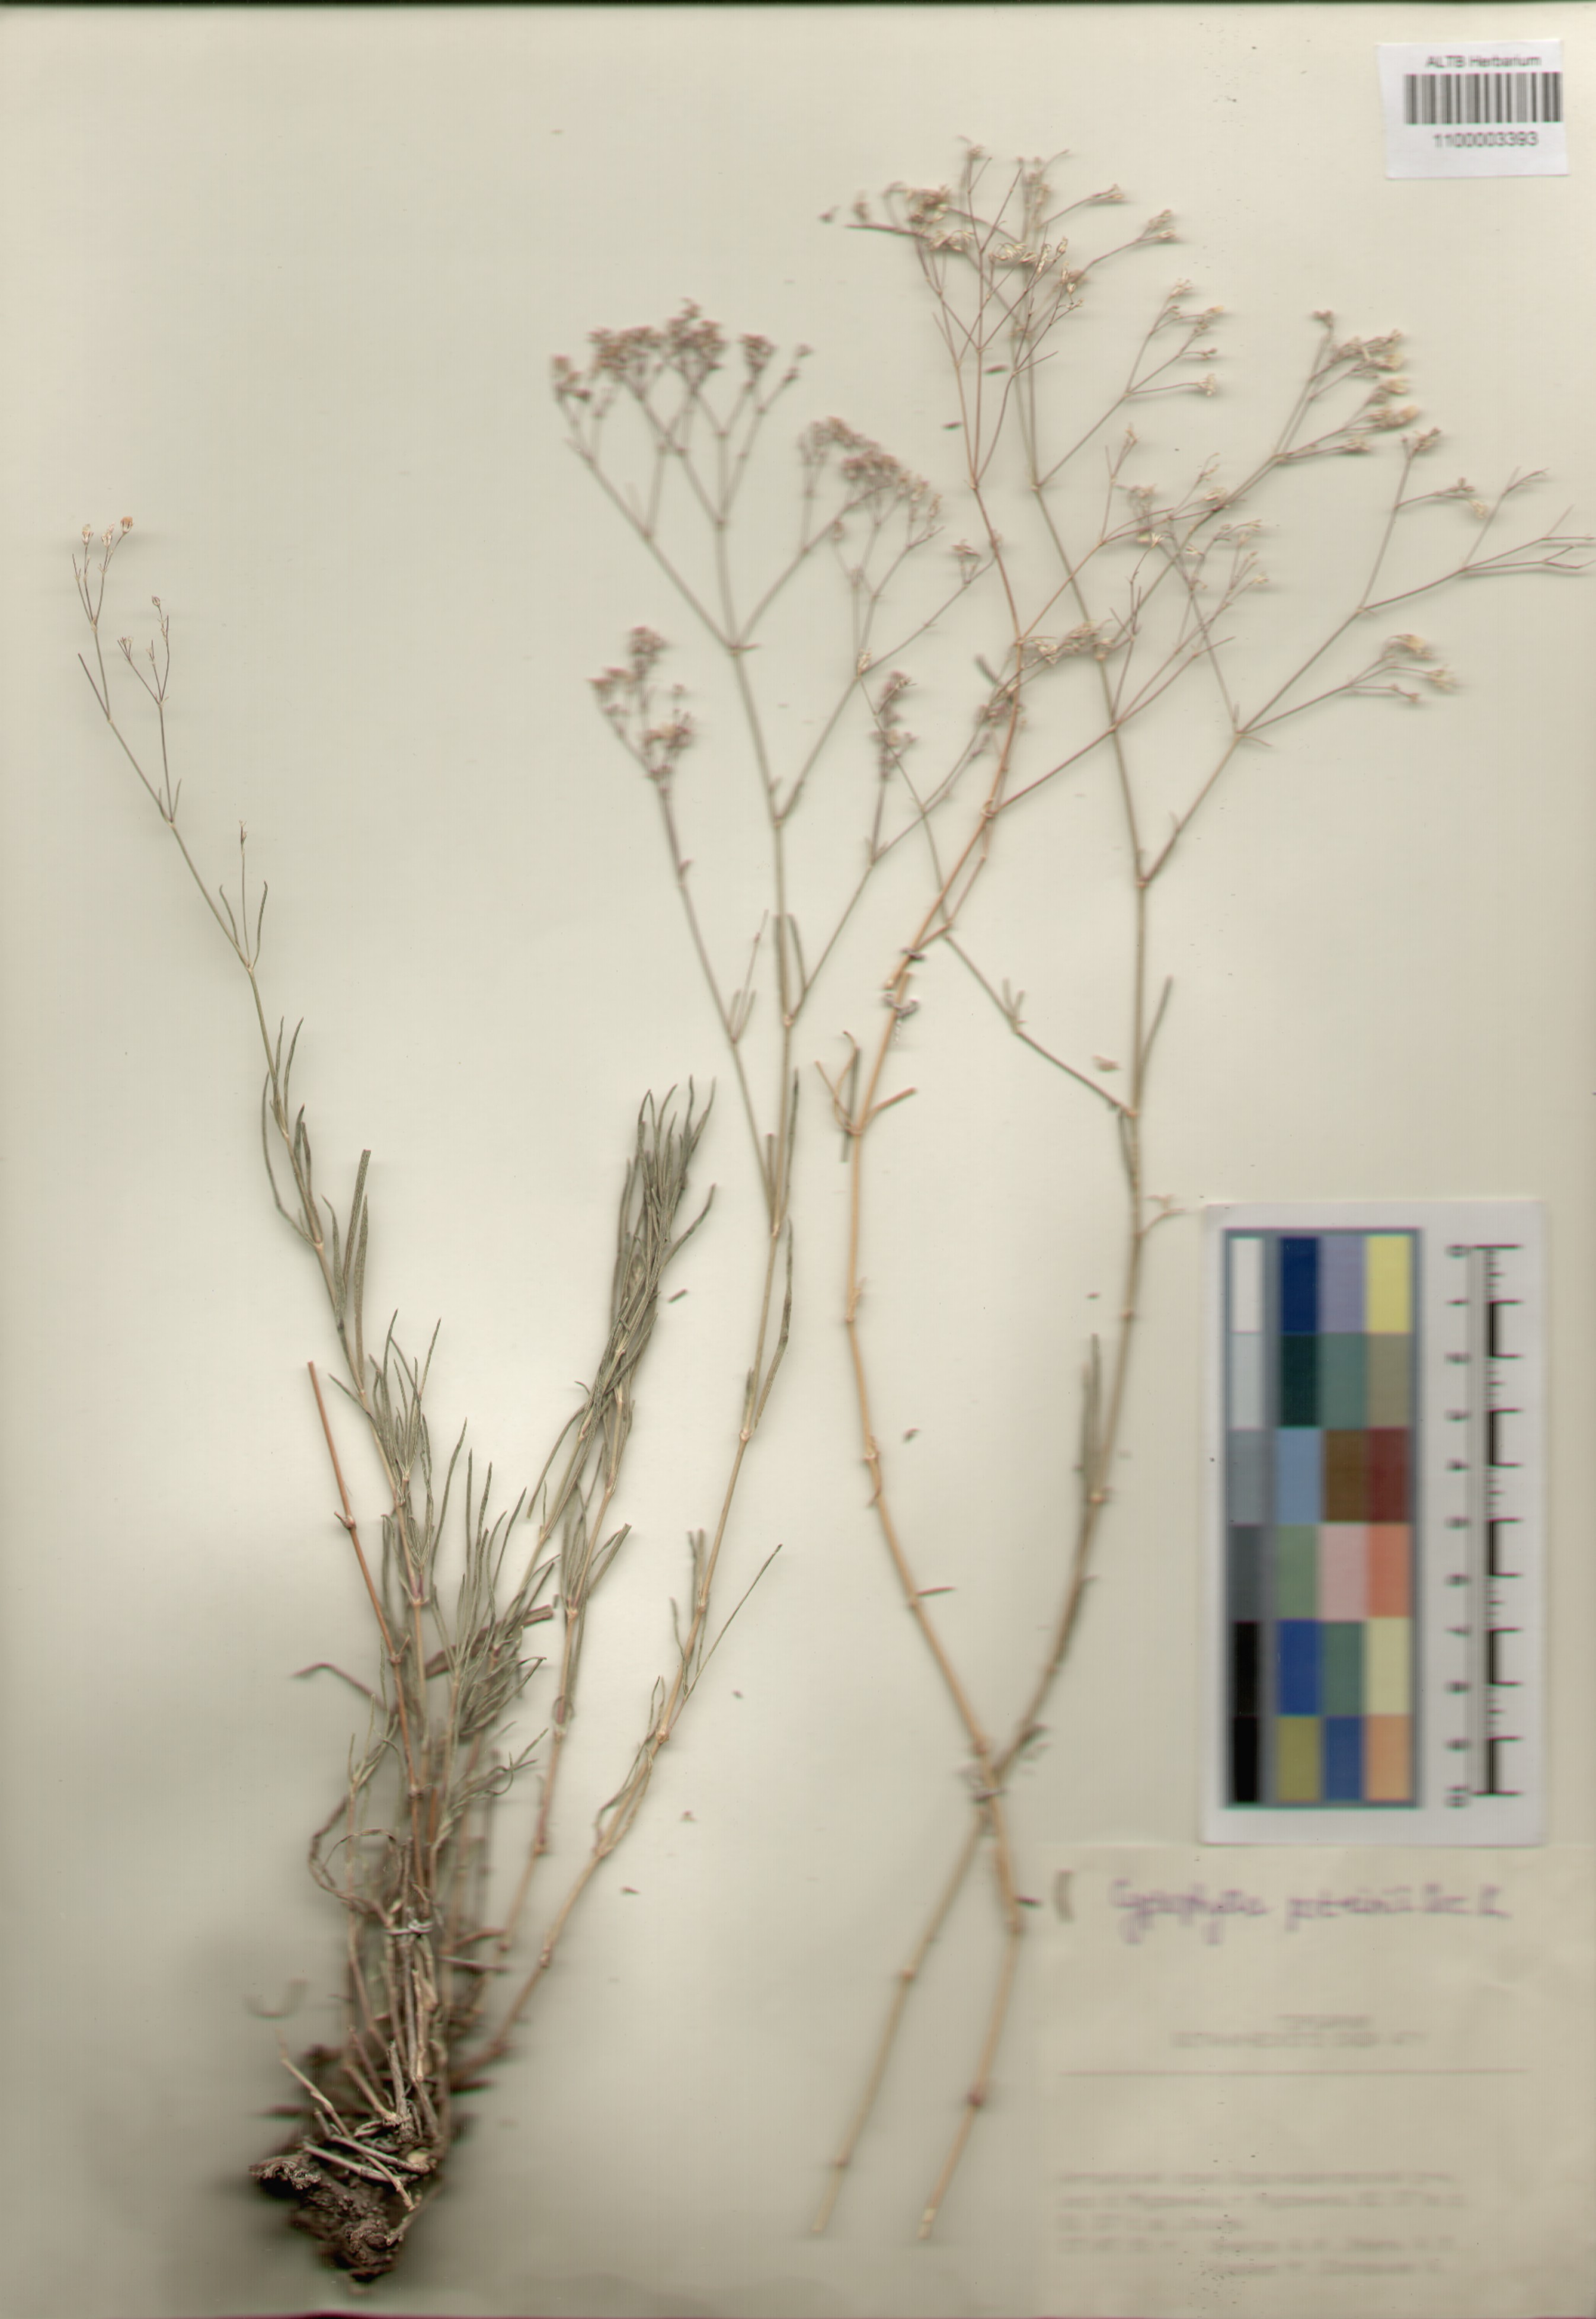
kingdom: Plantae
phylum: Tracheophyta
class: Magnoliopsida
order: Caryophyllales
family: Caryophyllaceae
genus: Gypsophila
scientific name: Gypsophila patrinii
